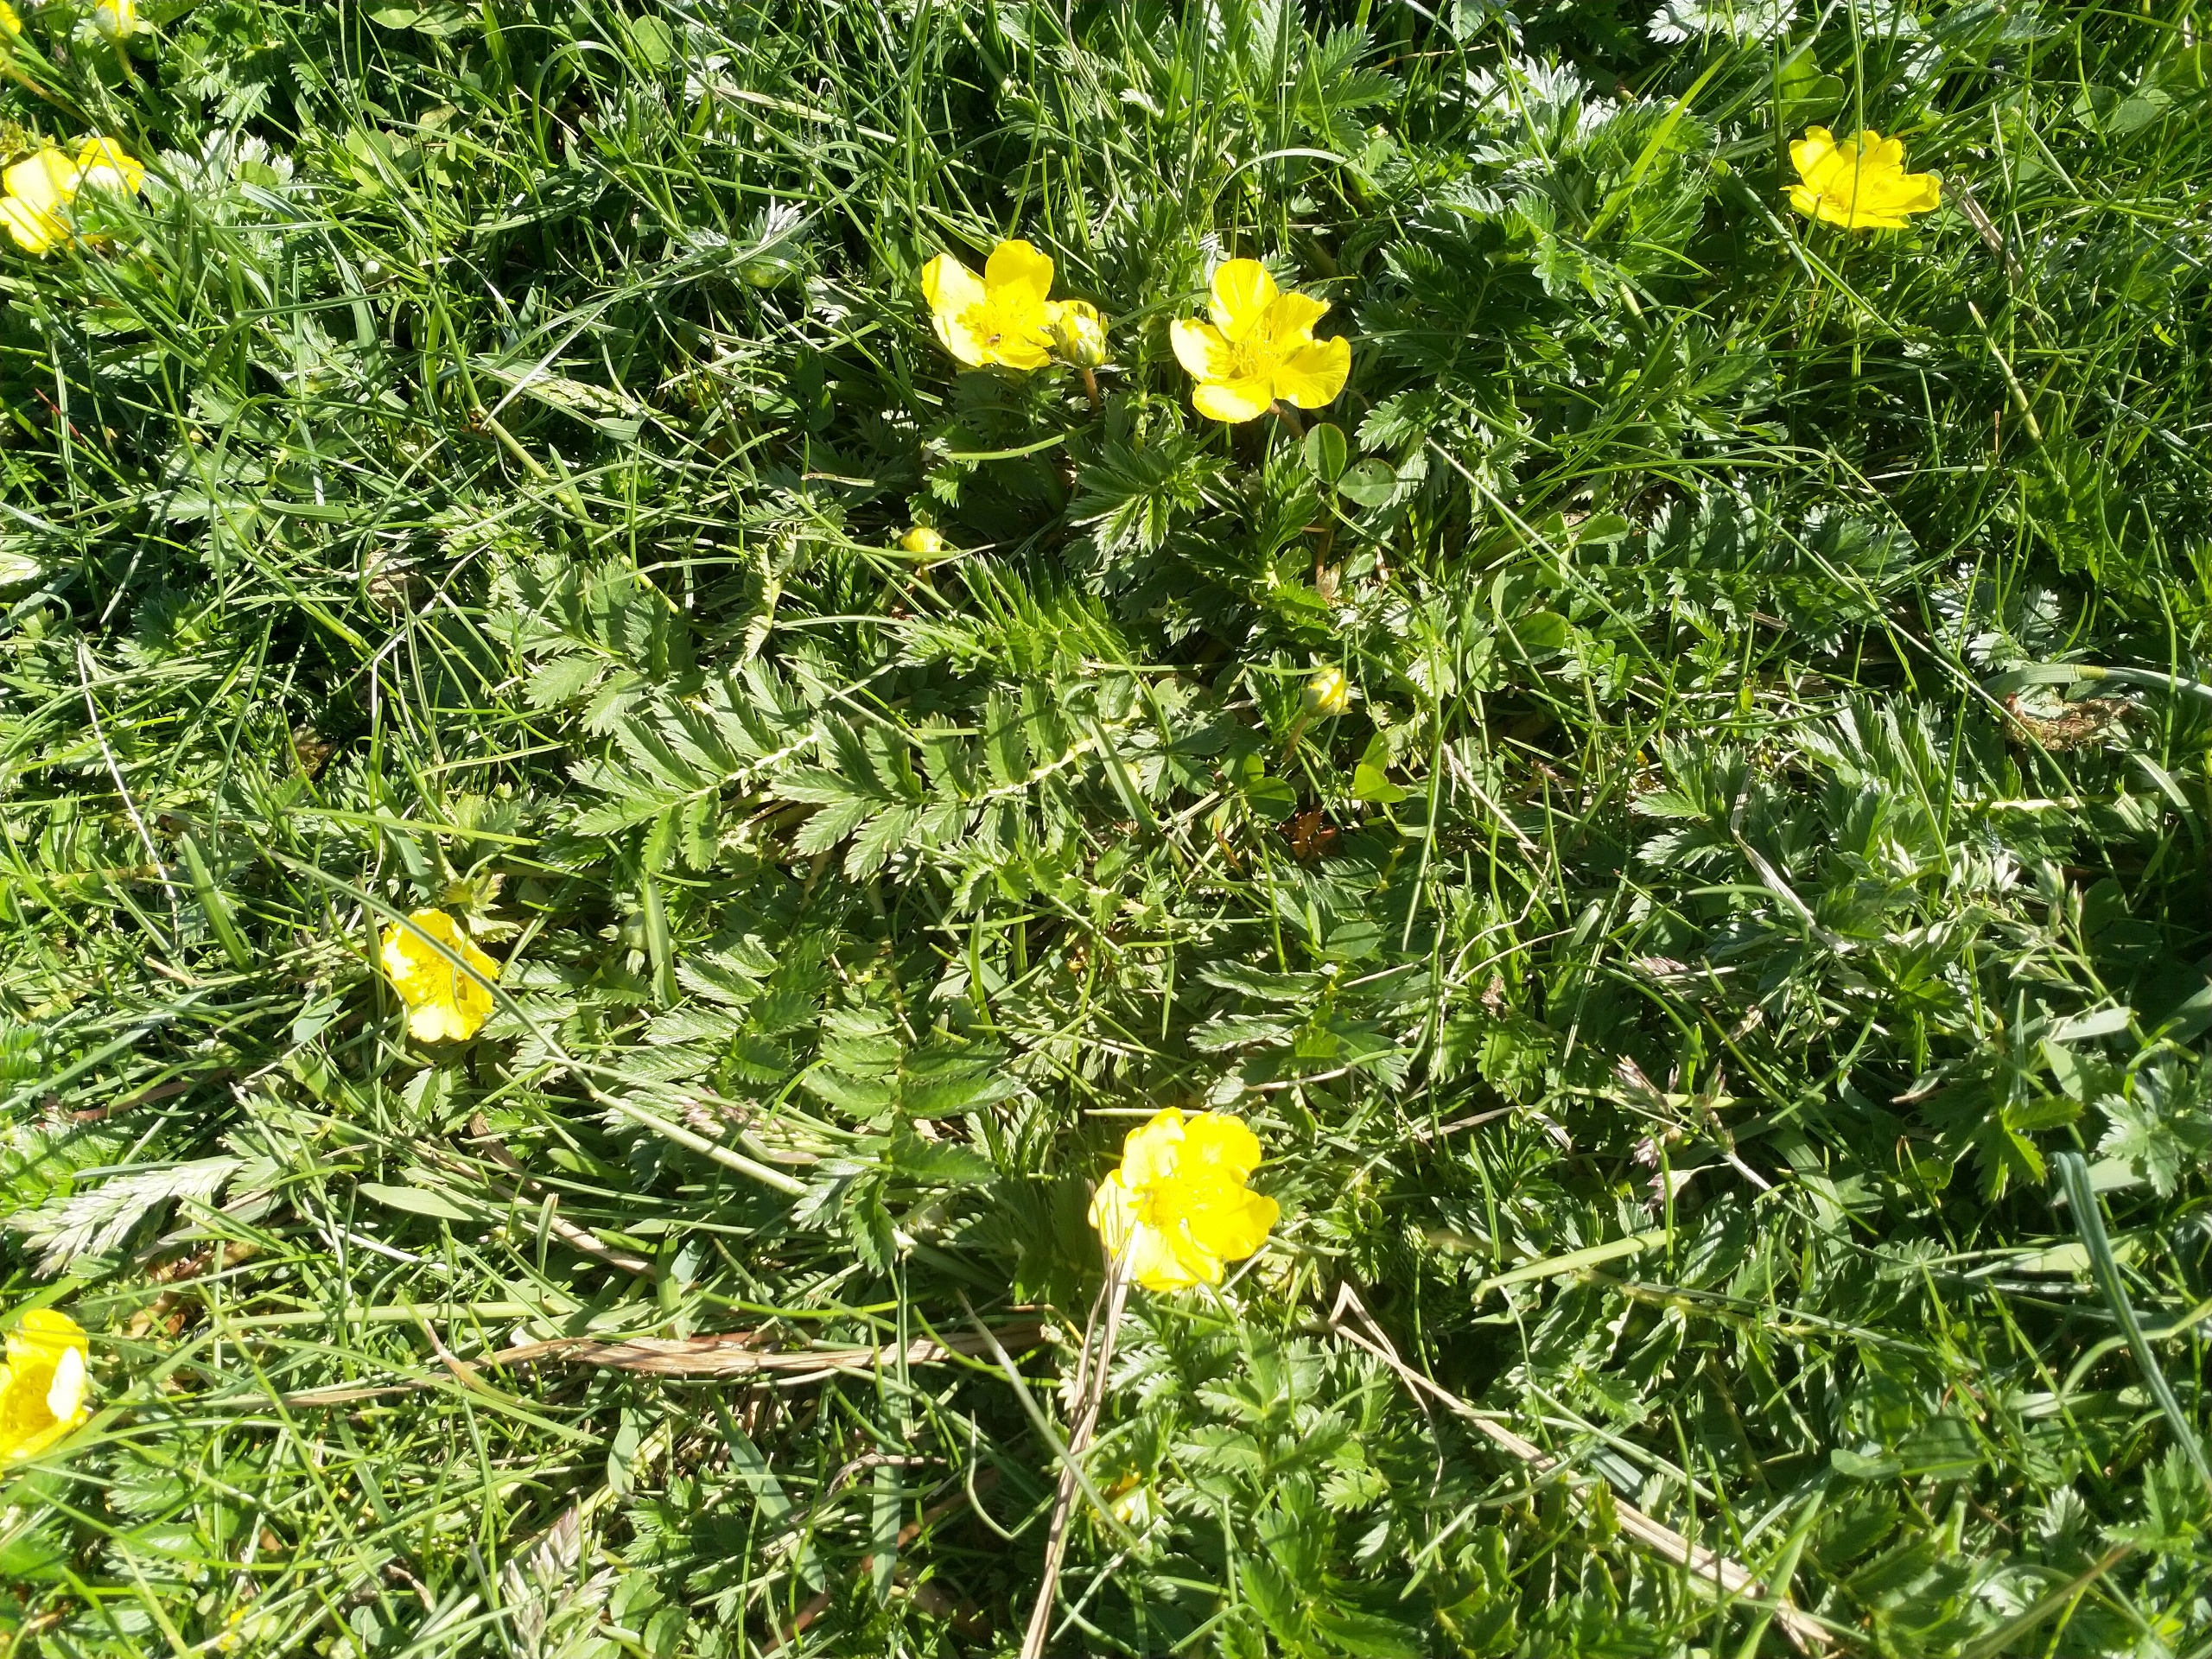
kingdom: Plantae
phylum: Tracheophyta
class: Magnoliopsida
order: Rosales
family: Rosaceae
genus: Argentina
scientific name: Argentina anserina
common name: Gåsepotentil
